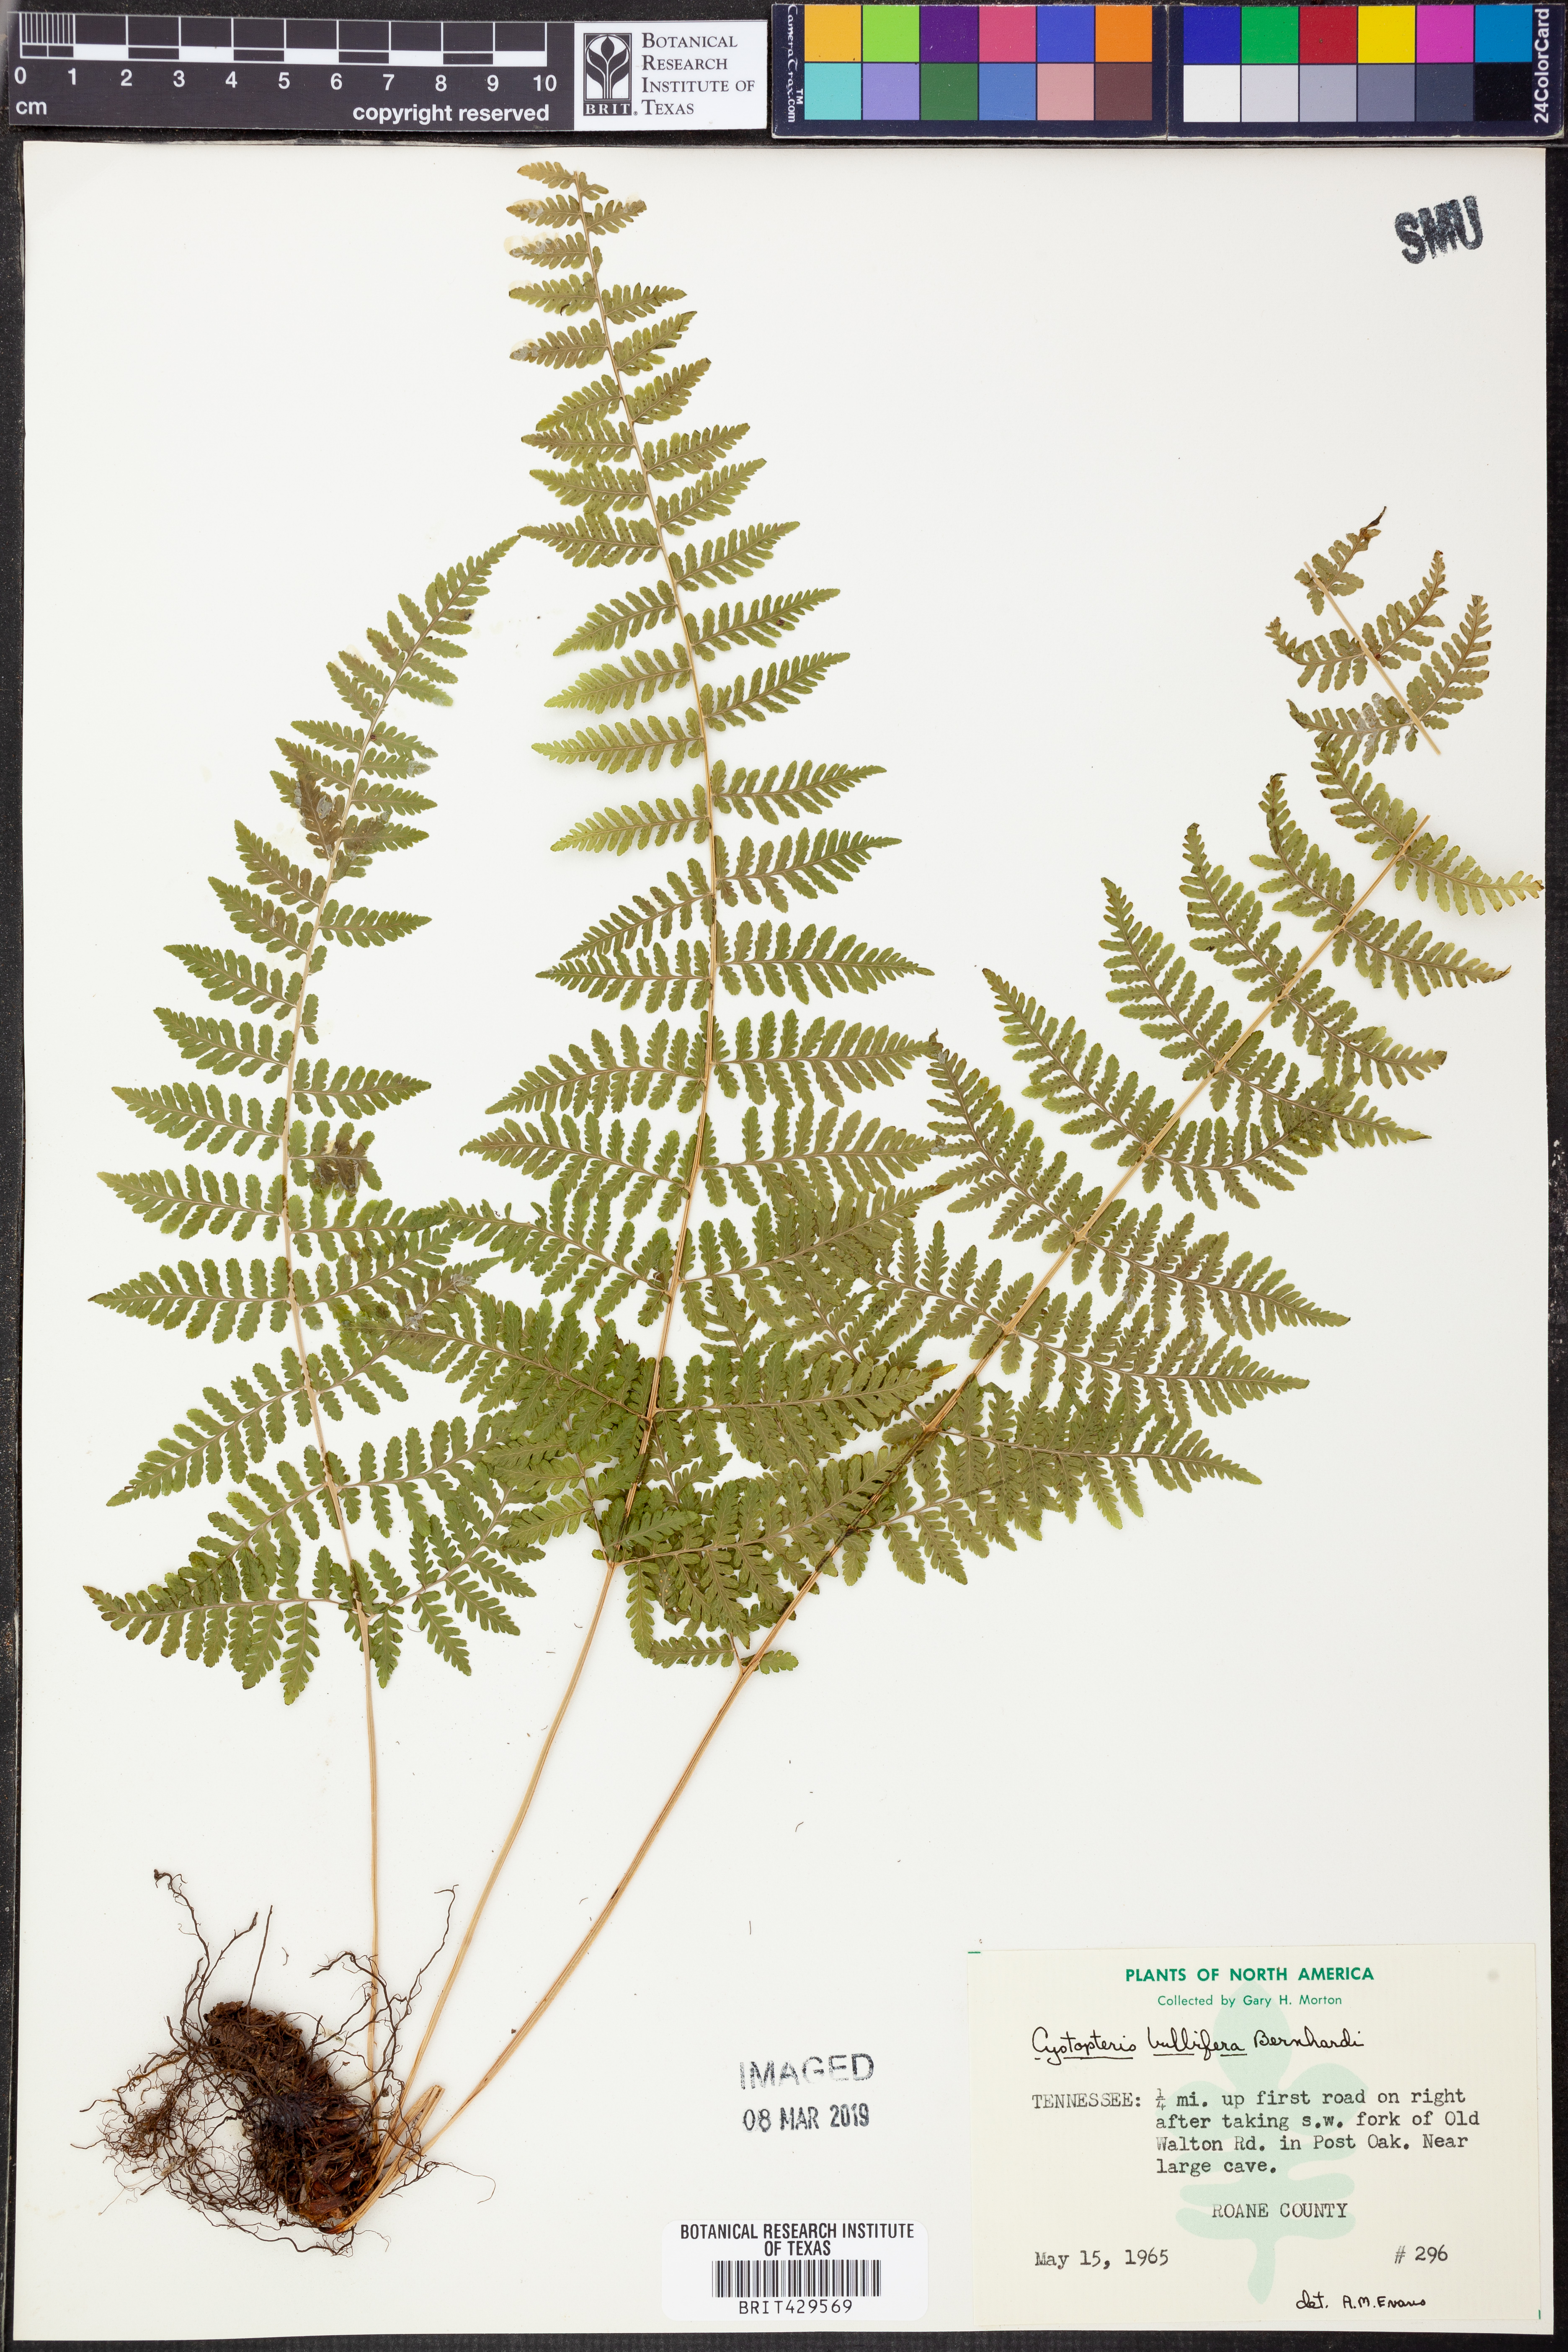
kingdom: Plantae
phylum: Tracheophyta
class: Polypodiopsida
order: Polypodiales
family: Cystopteridaceae
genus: Cystopteris
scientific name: Cystopteris bulbifera
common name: Bulblet bladder fern
